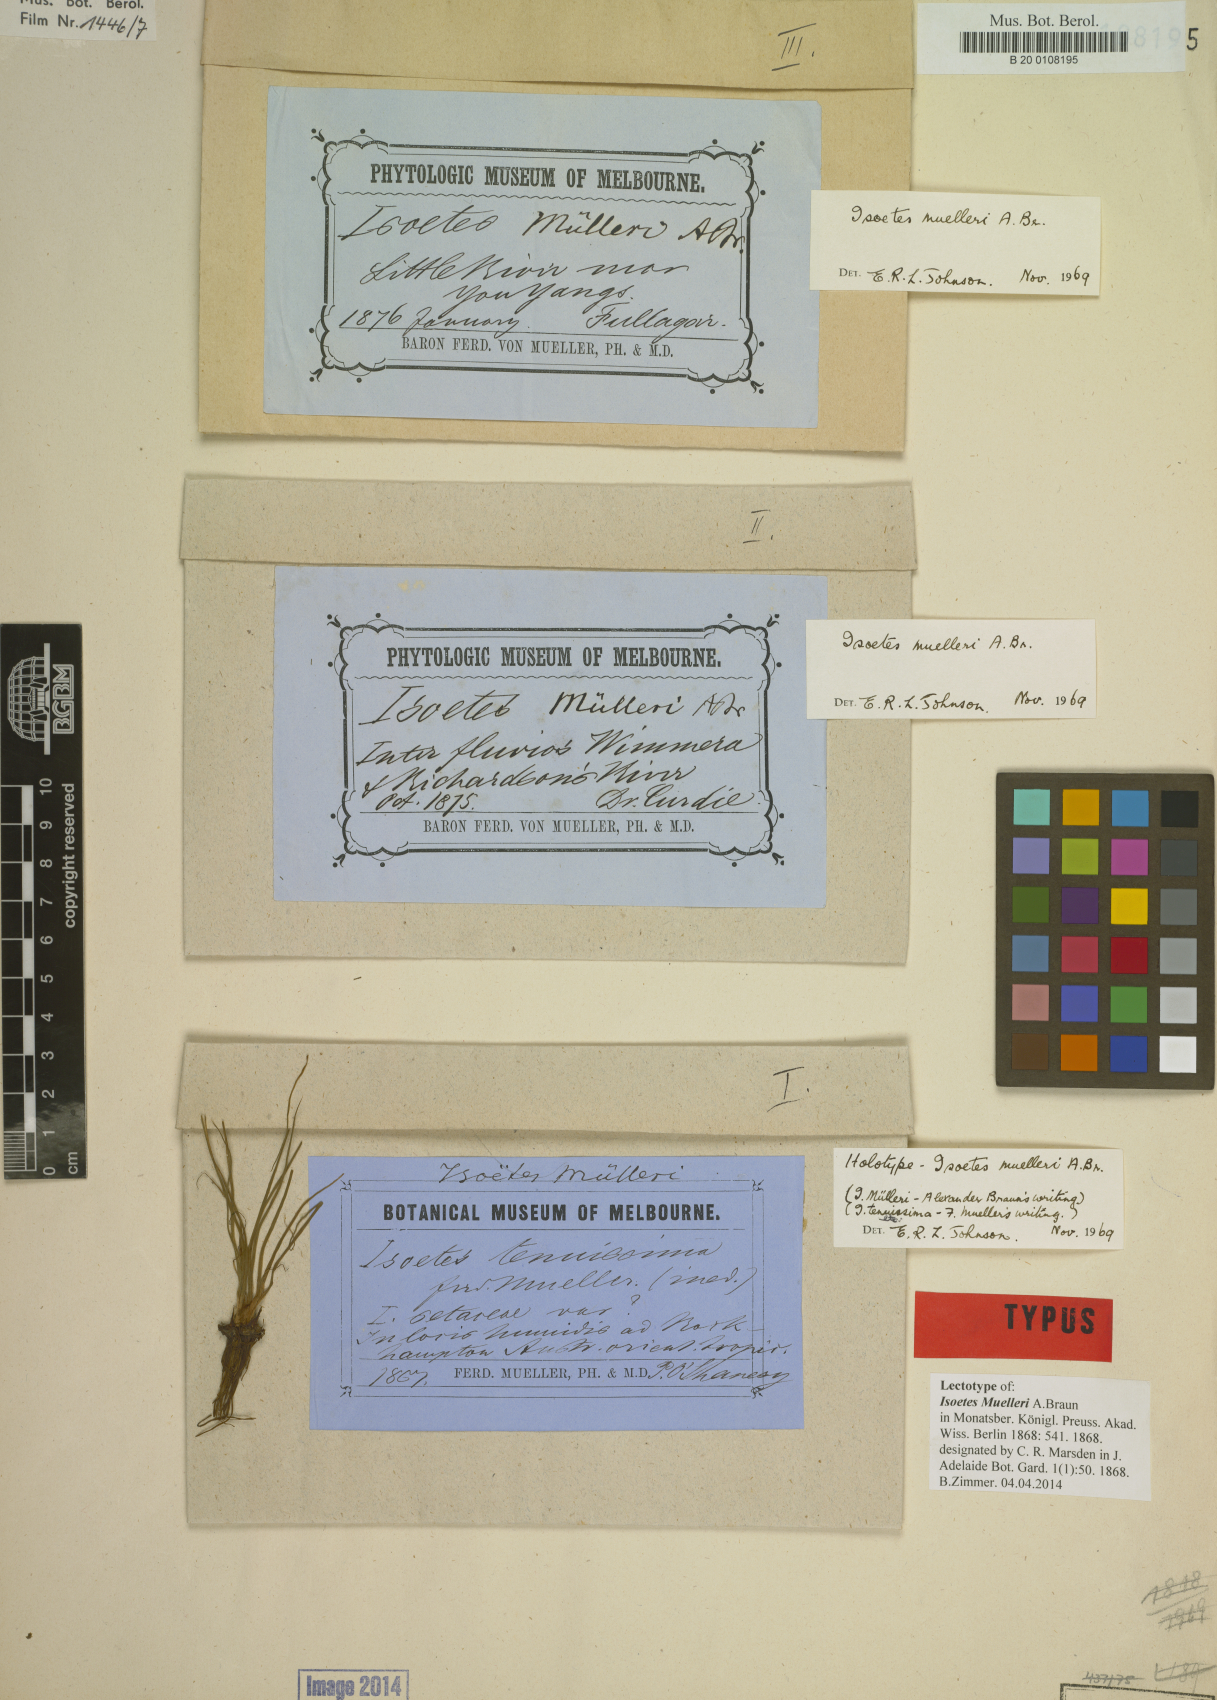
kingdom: Plantae
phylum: Tracheophyta
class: Lycopodiopsida
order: Isoetales
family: Isoetaceae
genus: Isoetes
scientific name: Isoetes muelleri
